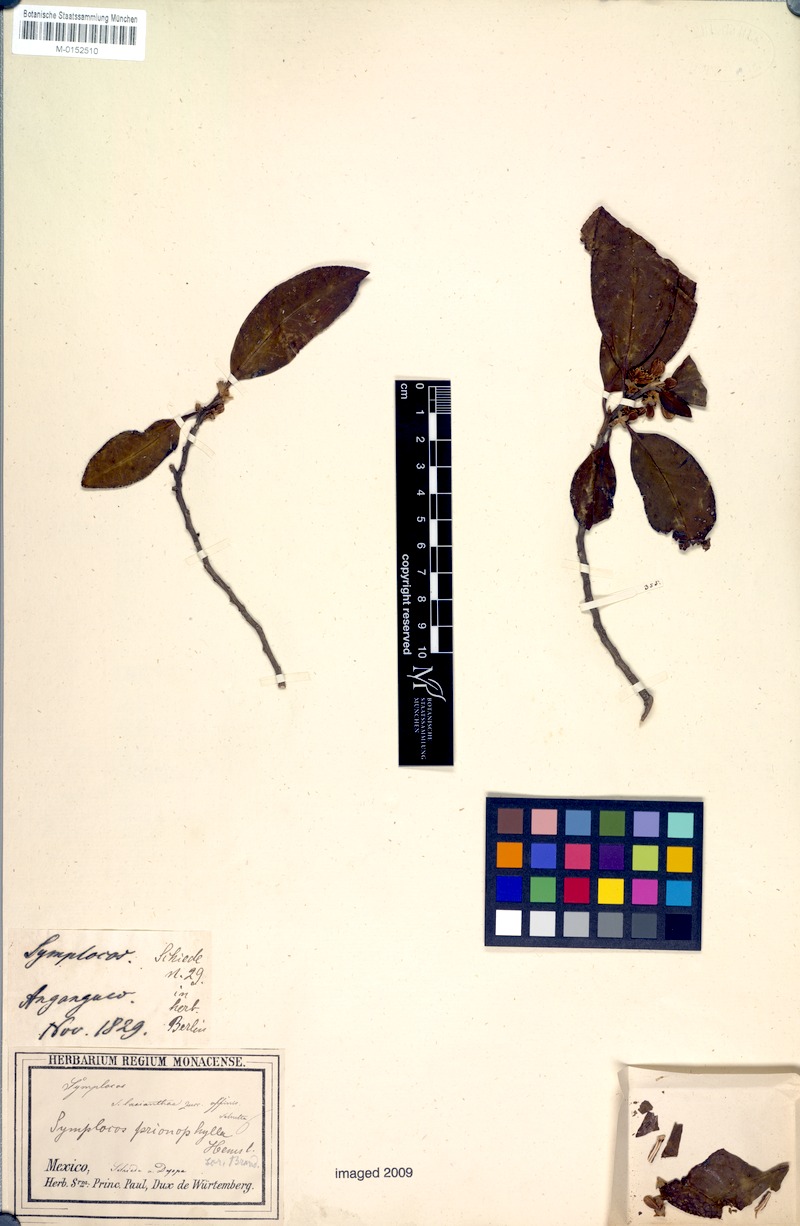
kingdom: Plantae
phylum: Tracheophyta
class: Magnoliopsida
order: Ericales
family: Symplocaceae
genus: Symplocos
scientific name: Symplocos citrea
